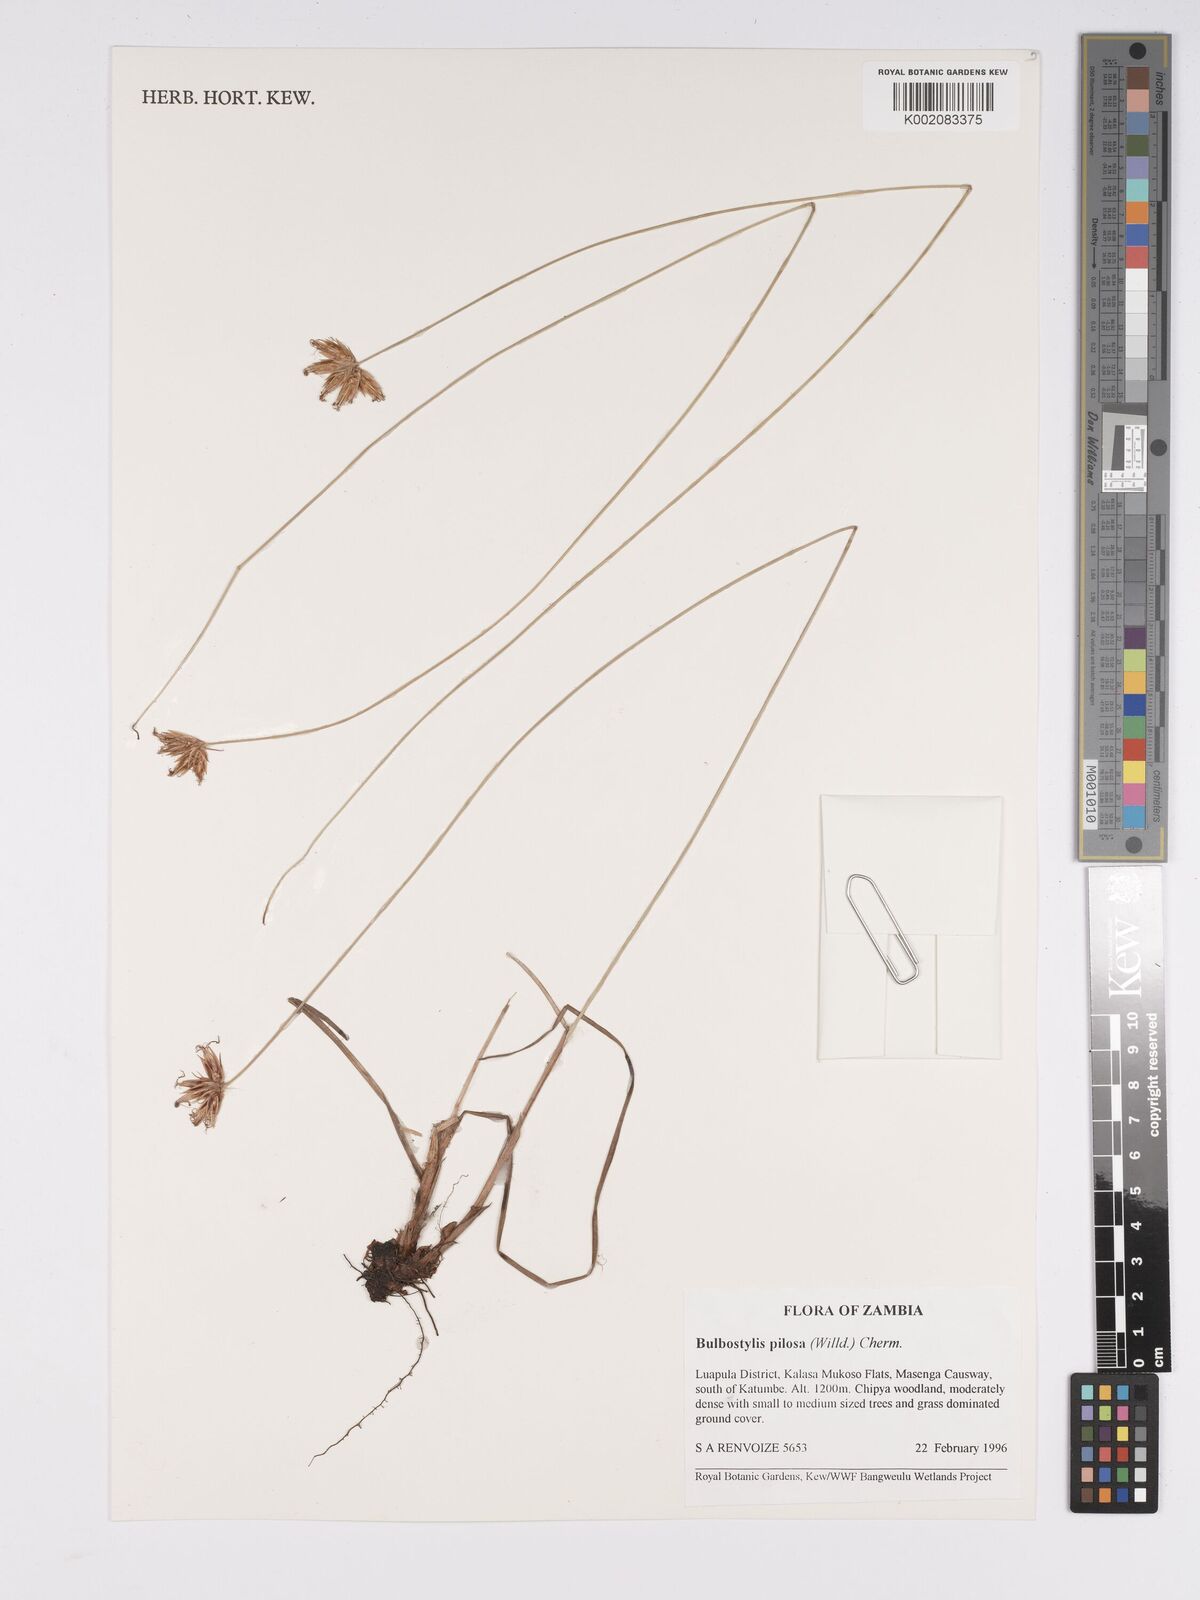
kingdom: Plantae
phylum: Tracheophyta
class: Liliopsida
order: Poales
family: Cyperaceae
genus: Bulbostylis
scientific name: Bulbostylis pilosa
